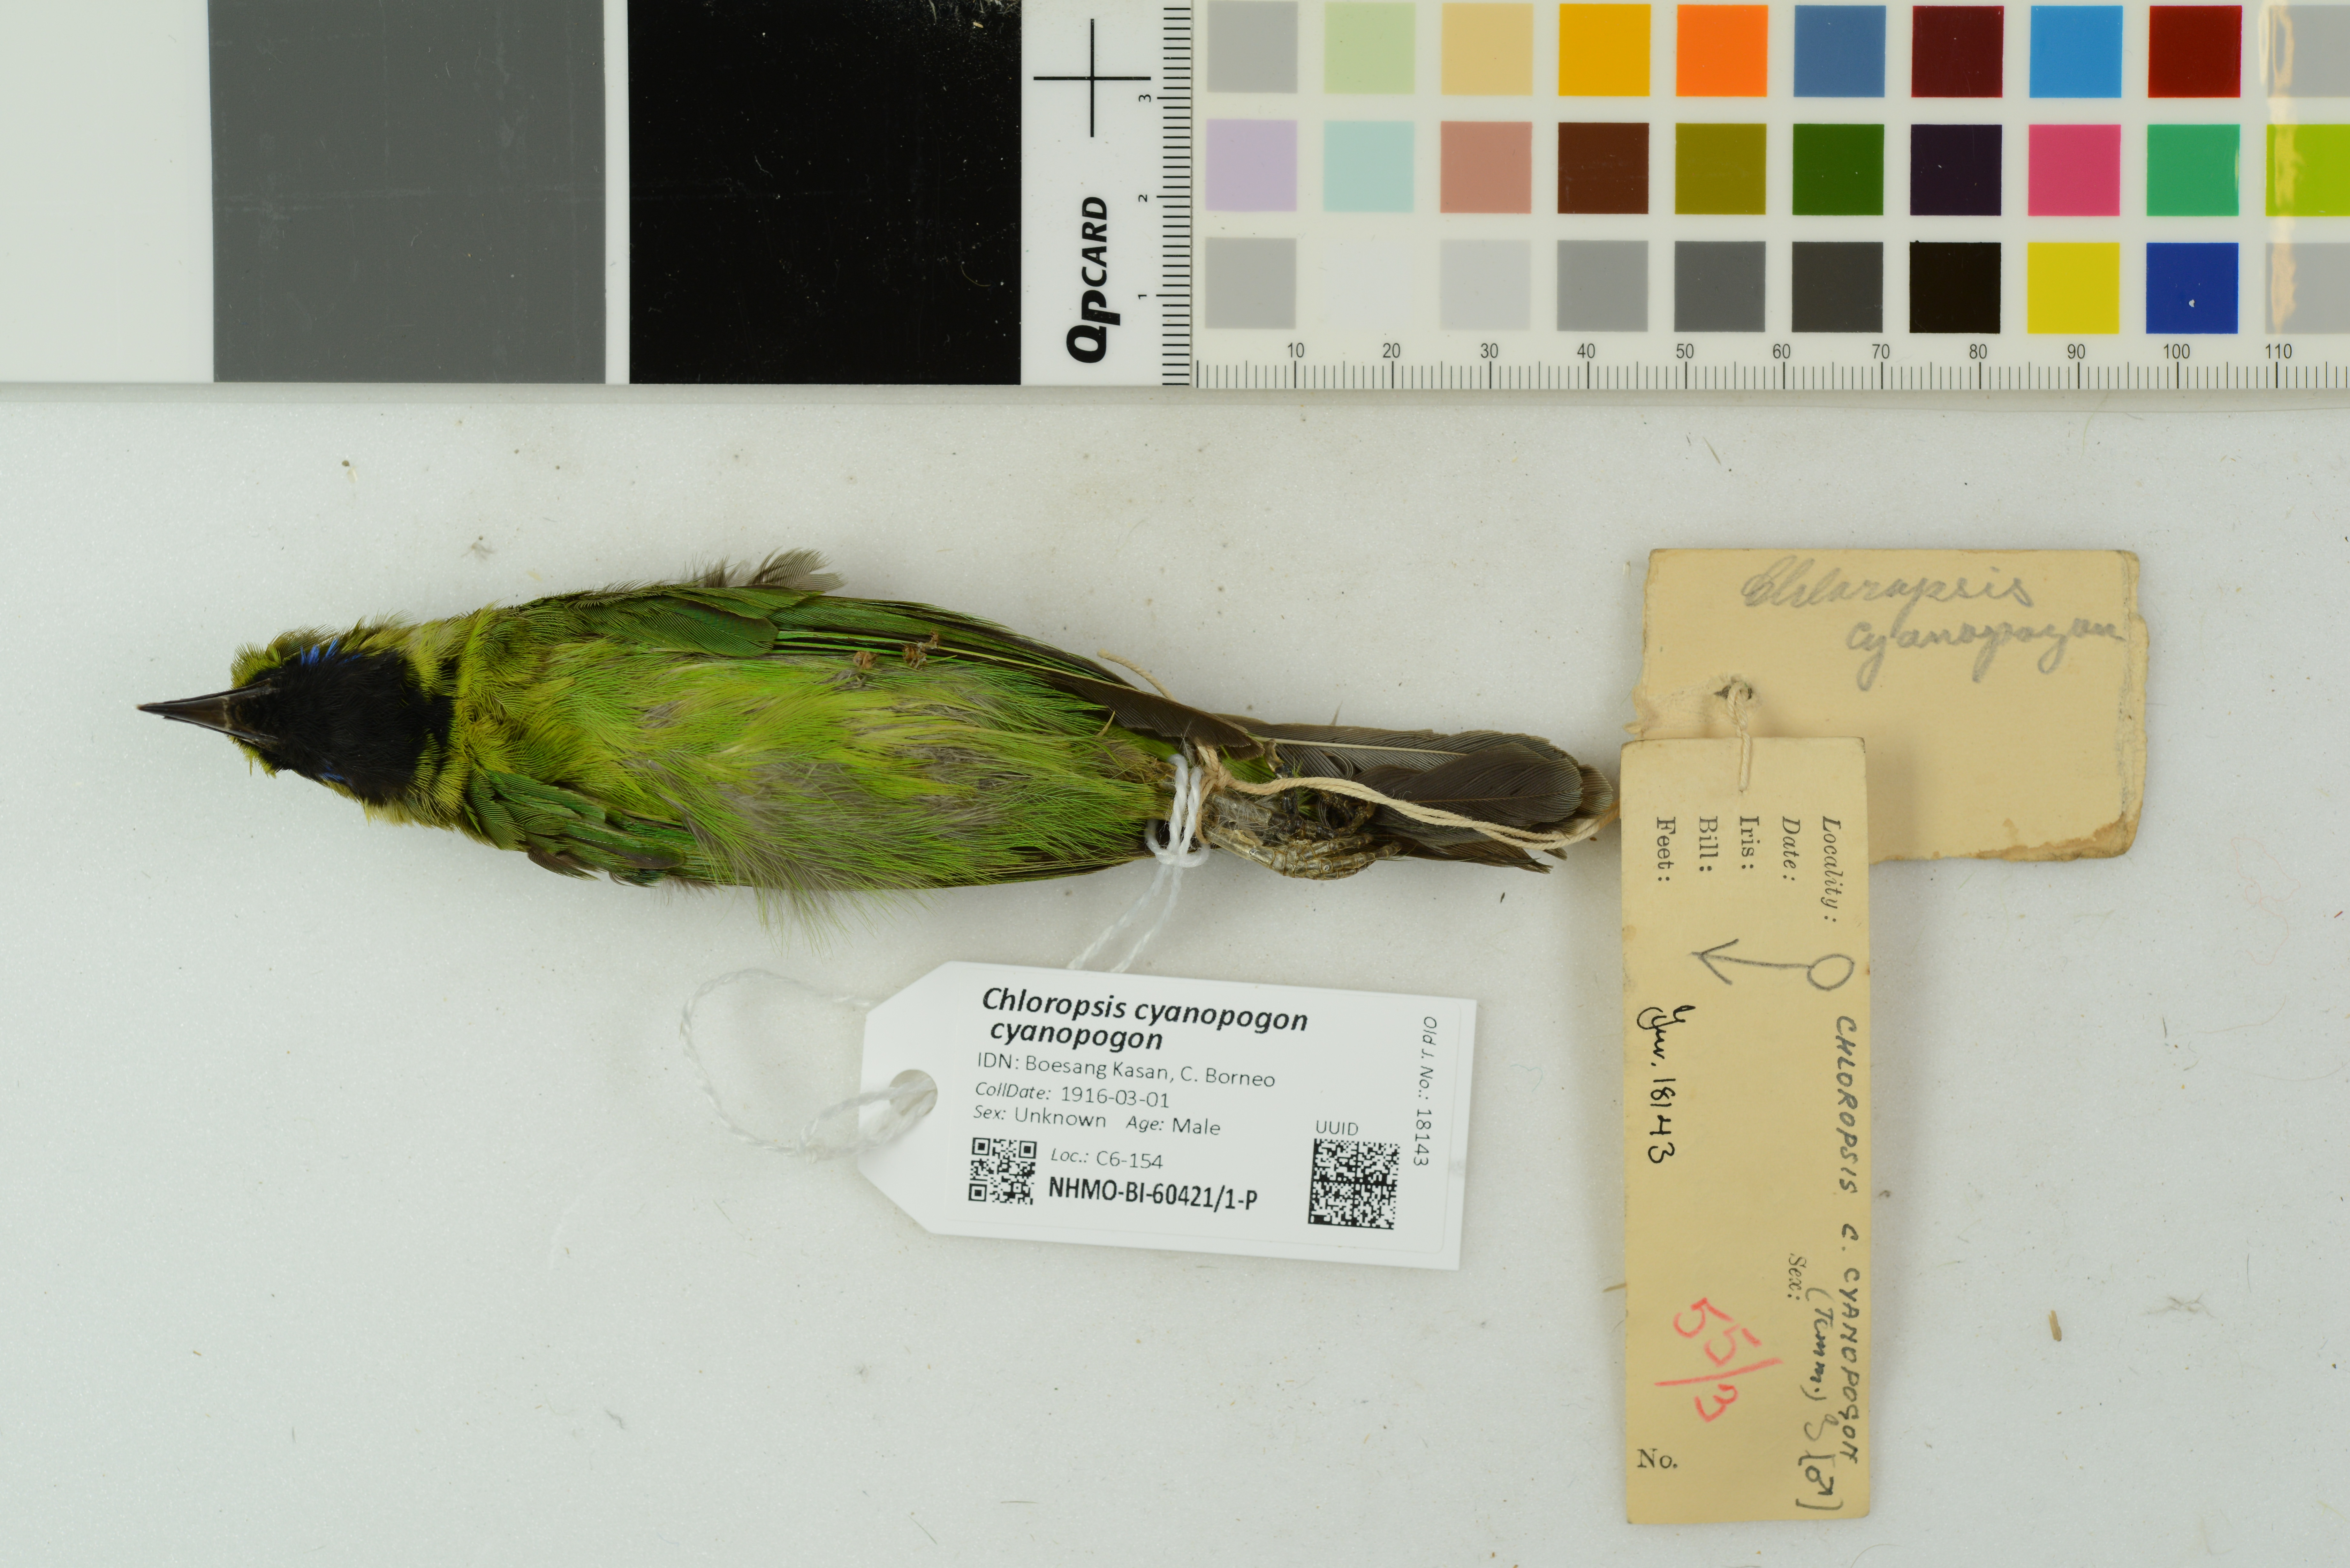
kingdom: Animalia
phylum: Chordata
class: Aves
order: Passeriformes
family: Chloropseidae
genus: Chloropsis
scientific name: Chloropsis cyanopogon
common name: Lesser green leafbird
